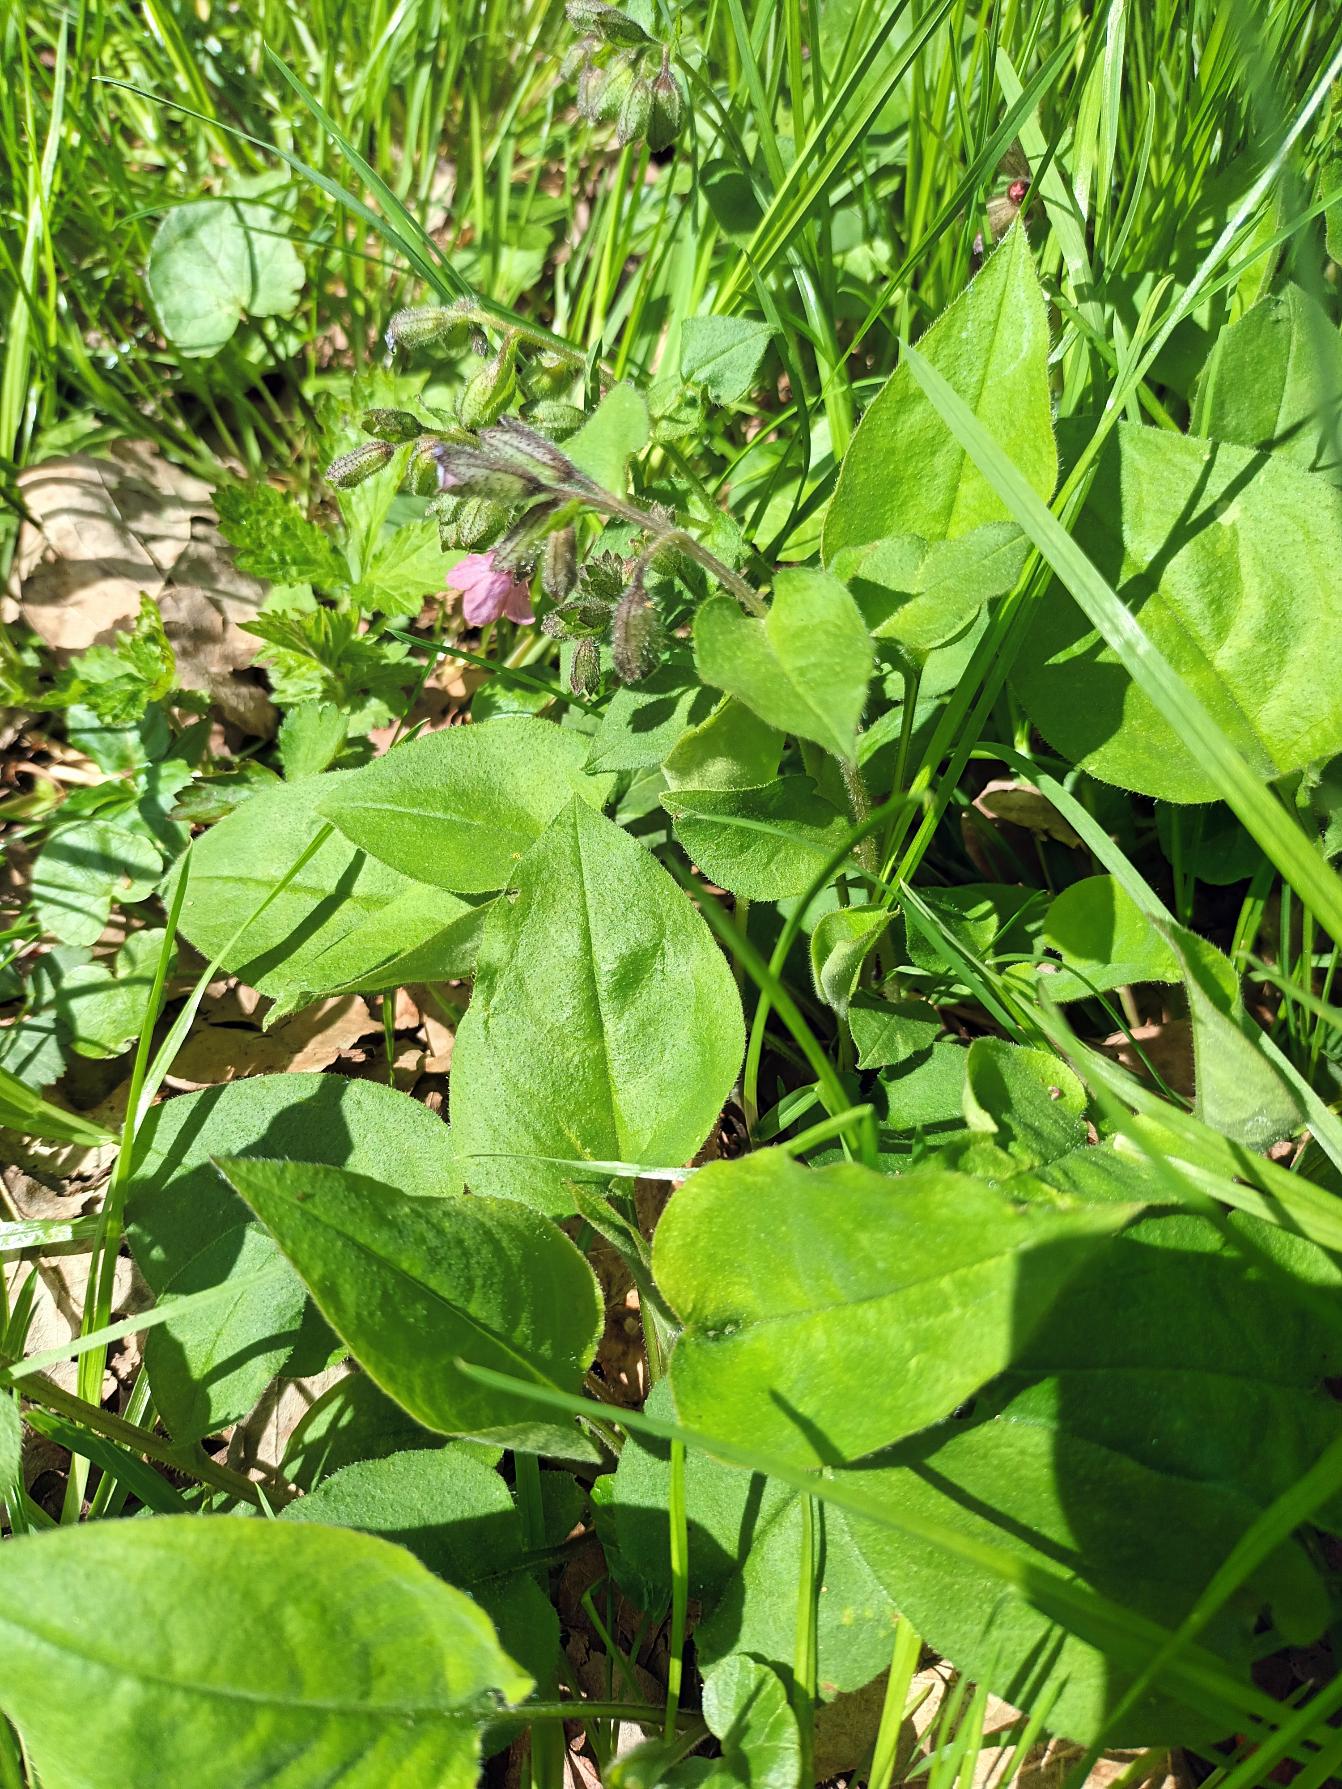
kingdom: Plantae
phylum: Tracheophyta
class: Magnoliopsida
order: Boraginales
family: Boraginaceae
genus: Pulmonaria
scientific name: Pulmonaria obscura
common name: Almindelig lungeurt
